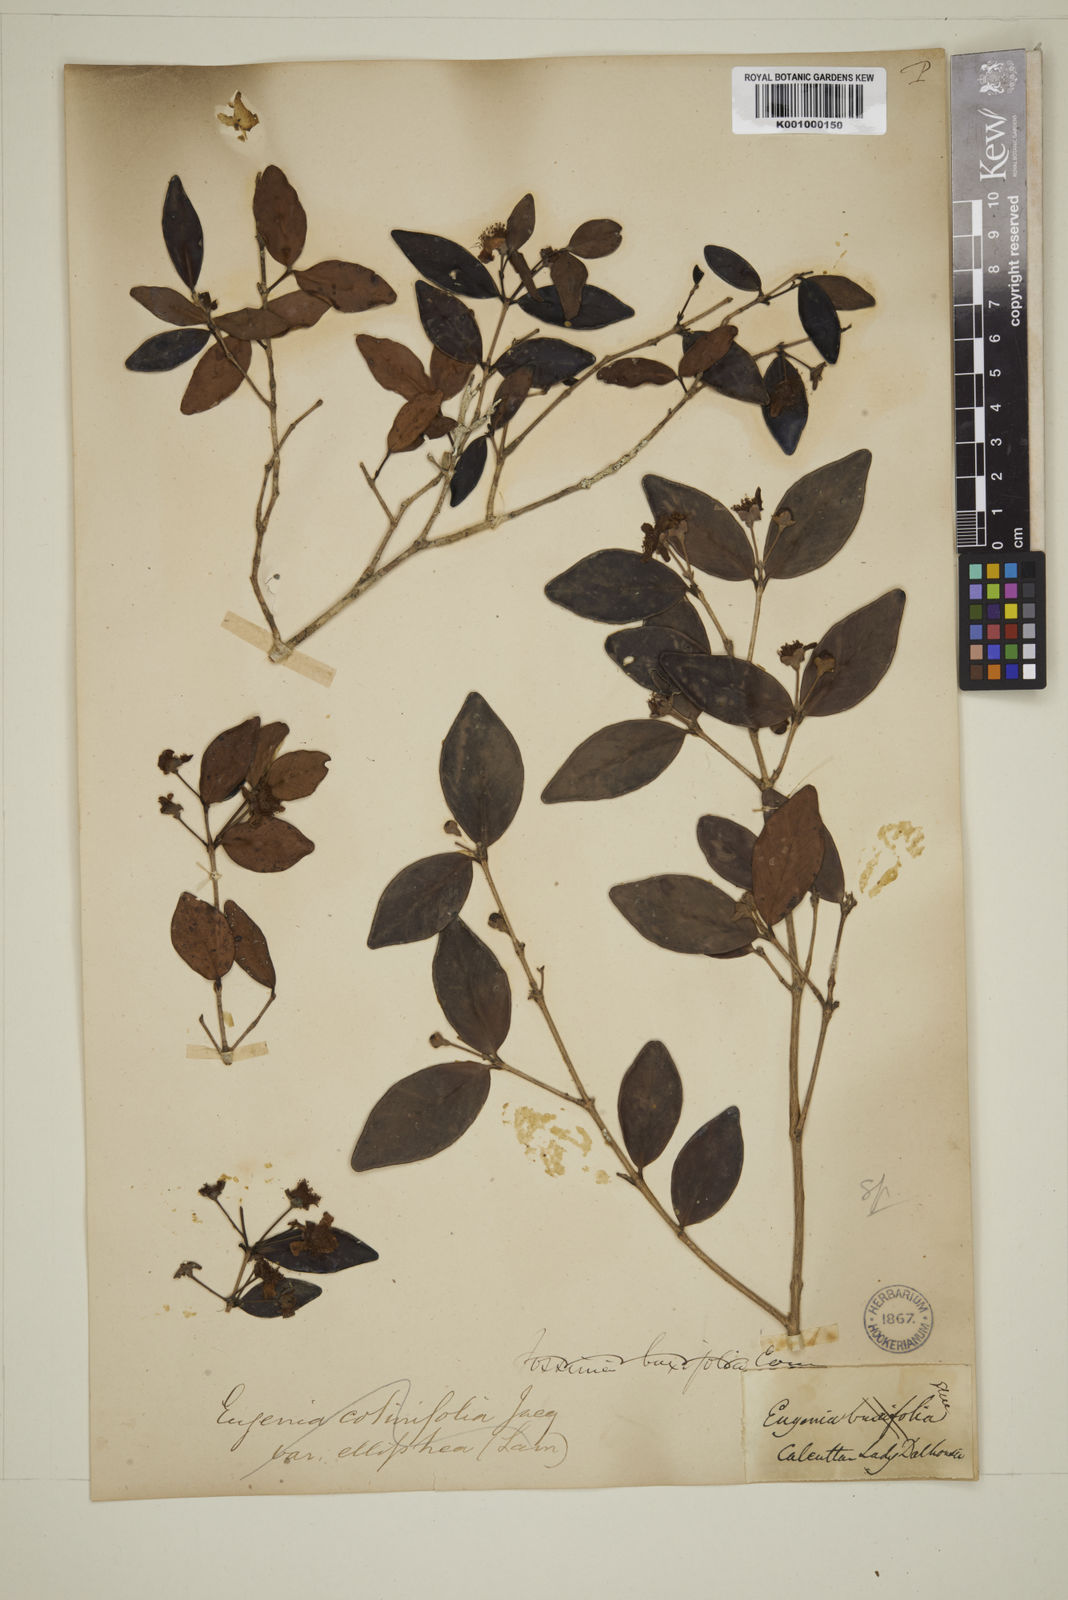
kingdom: Plantae
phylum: Tracheophyta
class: Magnoliopsida
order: Myrtales
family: Myrtaceae
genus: Eugenia
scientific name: Eugenia codyensis
